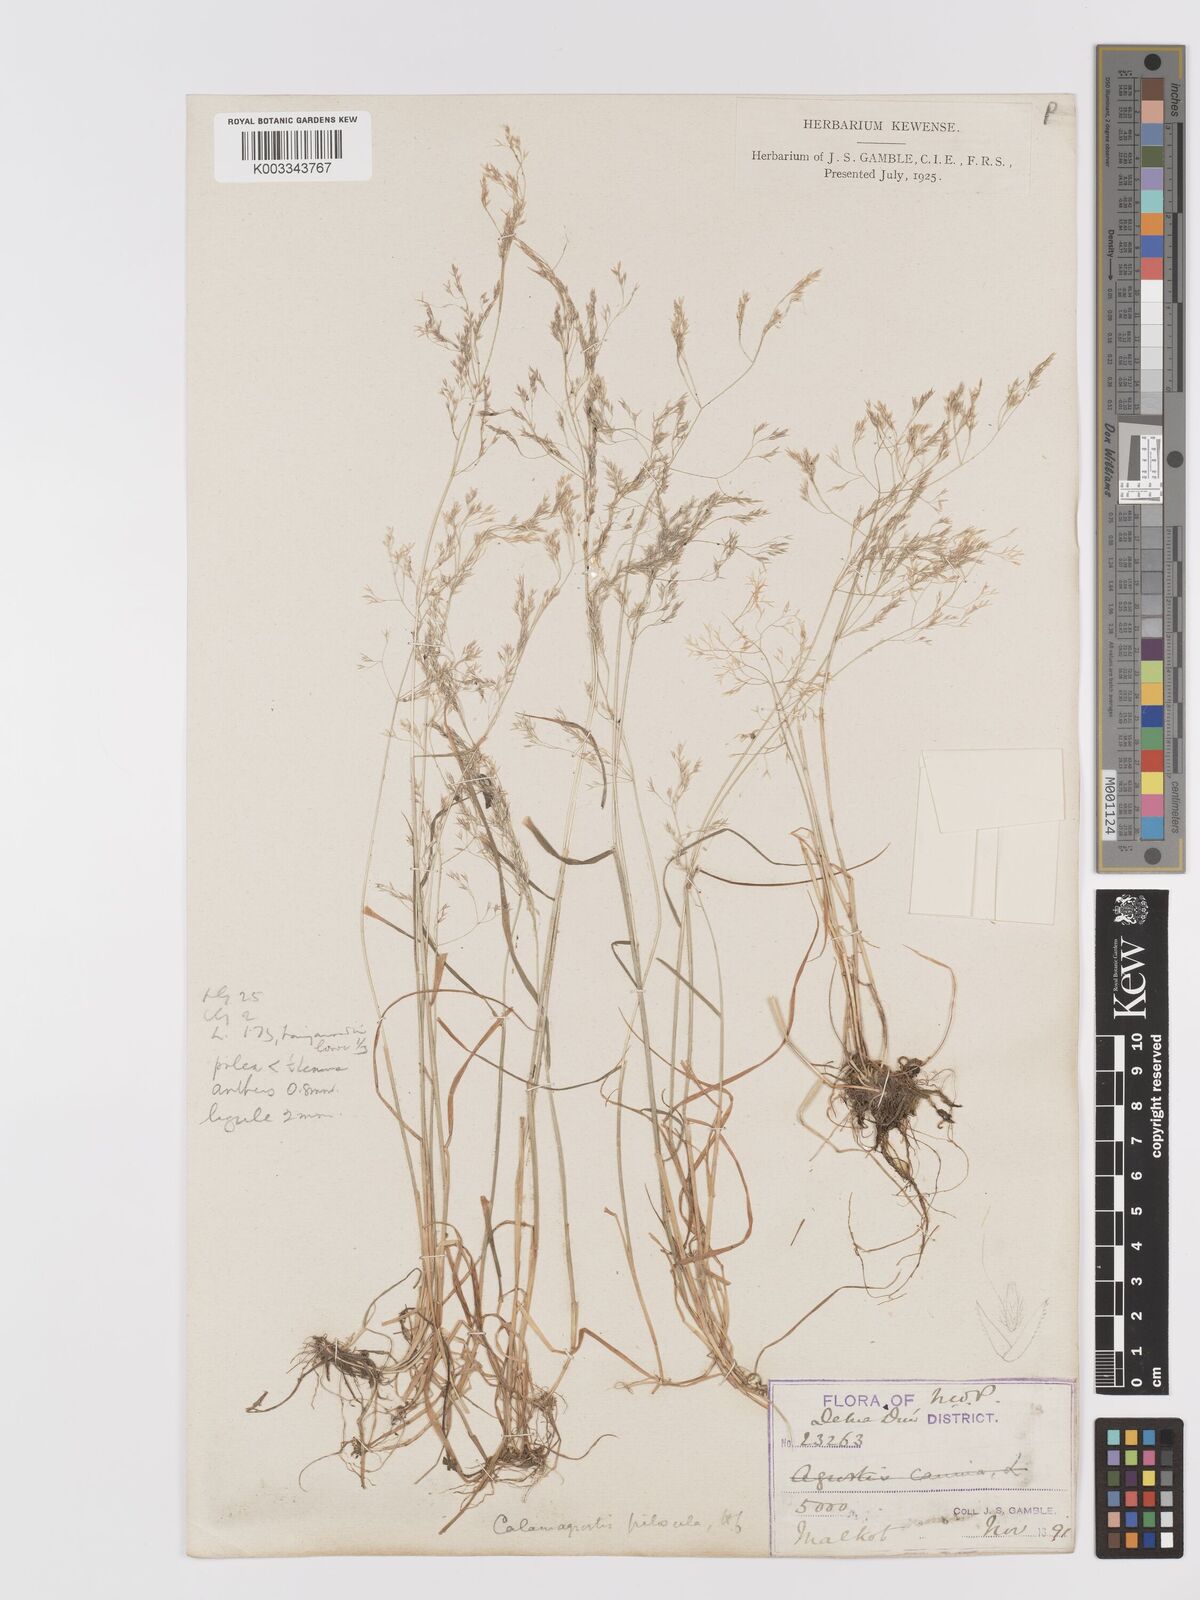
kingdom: Plantae
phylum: Tracheophyta
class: Liliopsida
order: Poales
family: Poaceae
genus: Agrostis
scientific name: Agrostis pilosula
